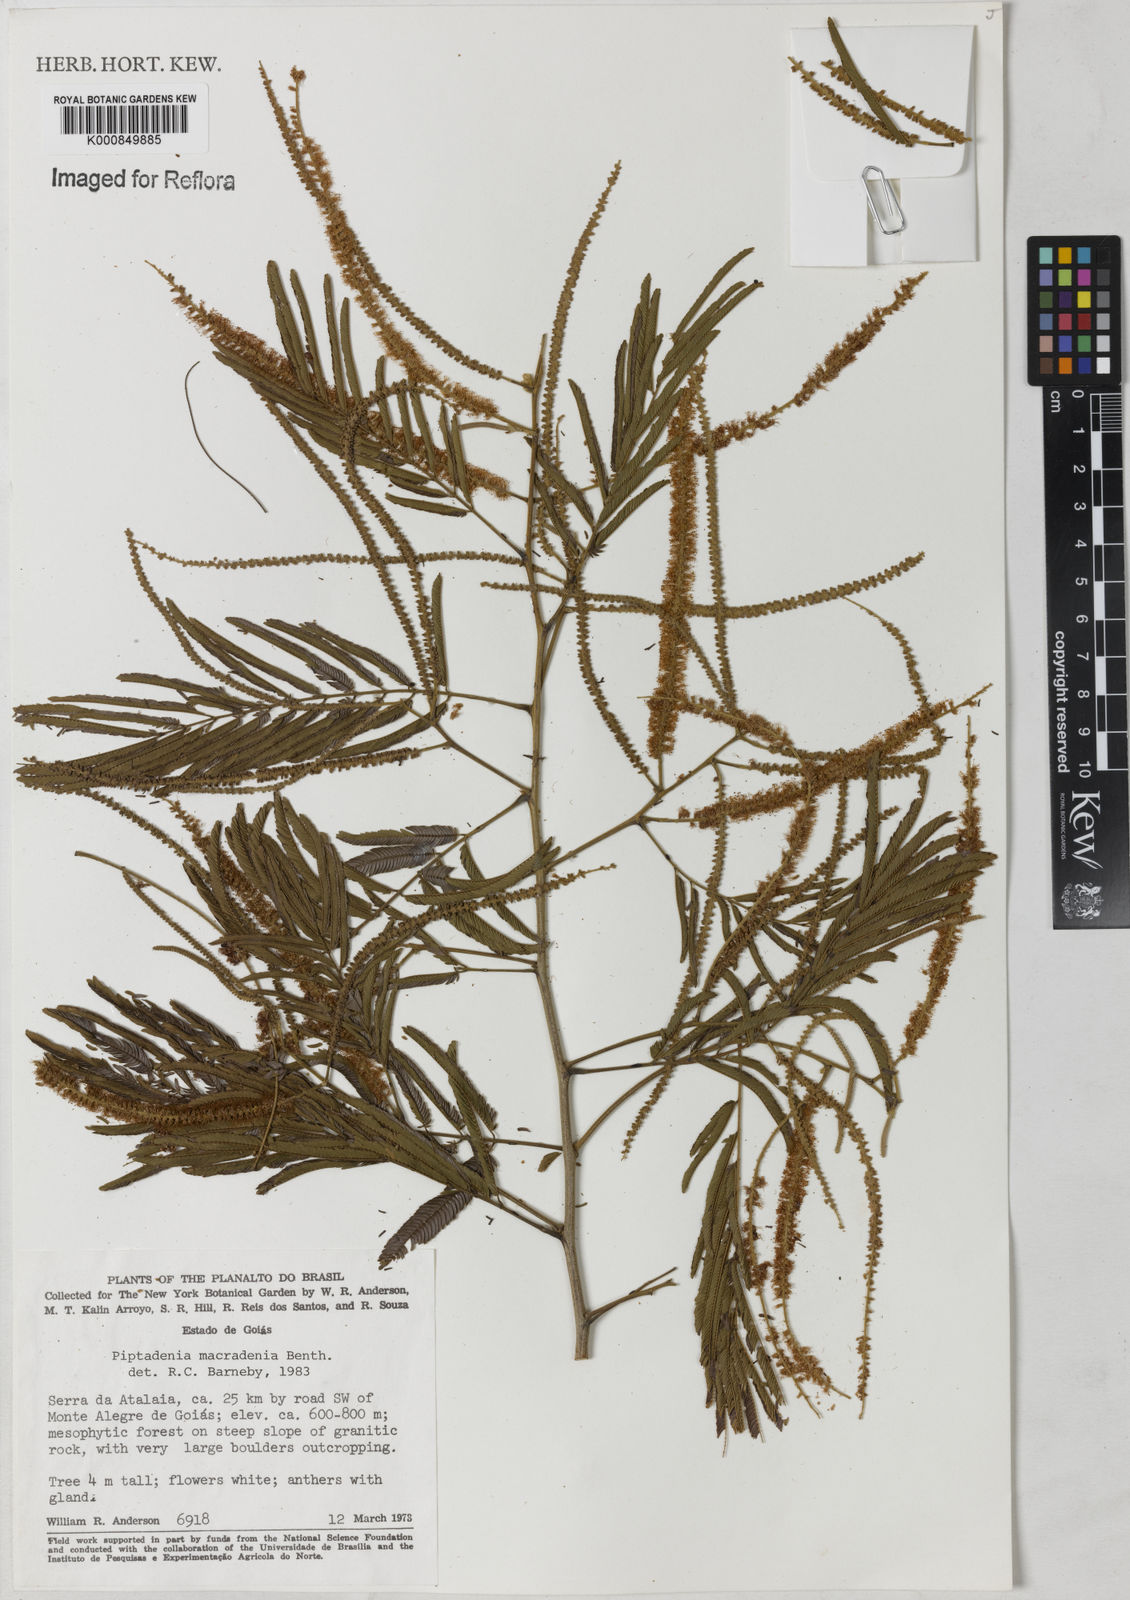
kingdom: Plantae
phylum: Tracheophyta
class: Magnoliopsida
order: Fabales
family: Fabaceae
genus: Piptadenia
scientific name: Piptadenia macradenia
